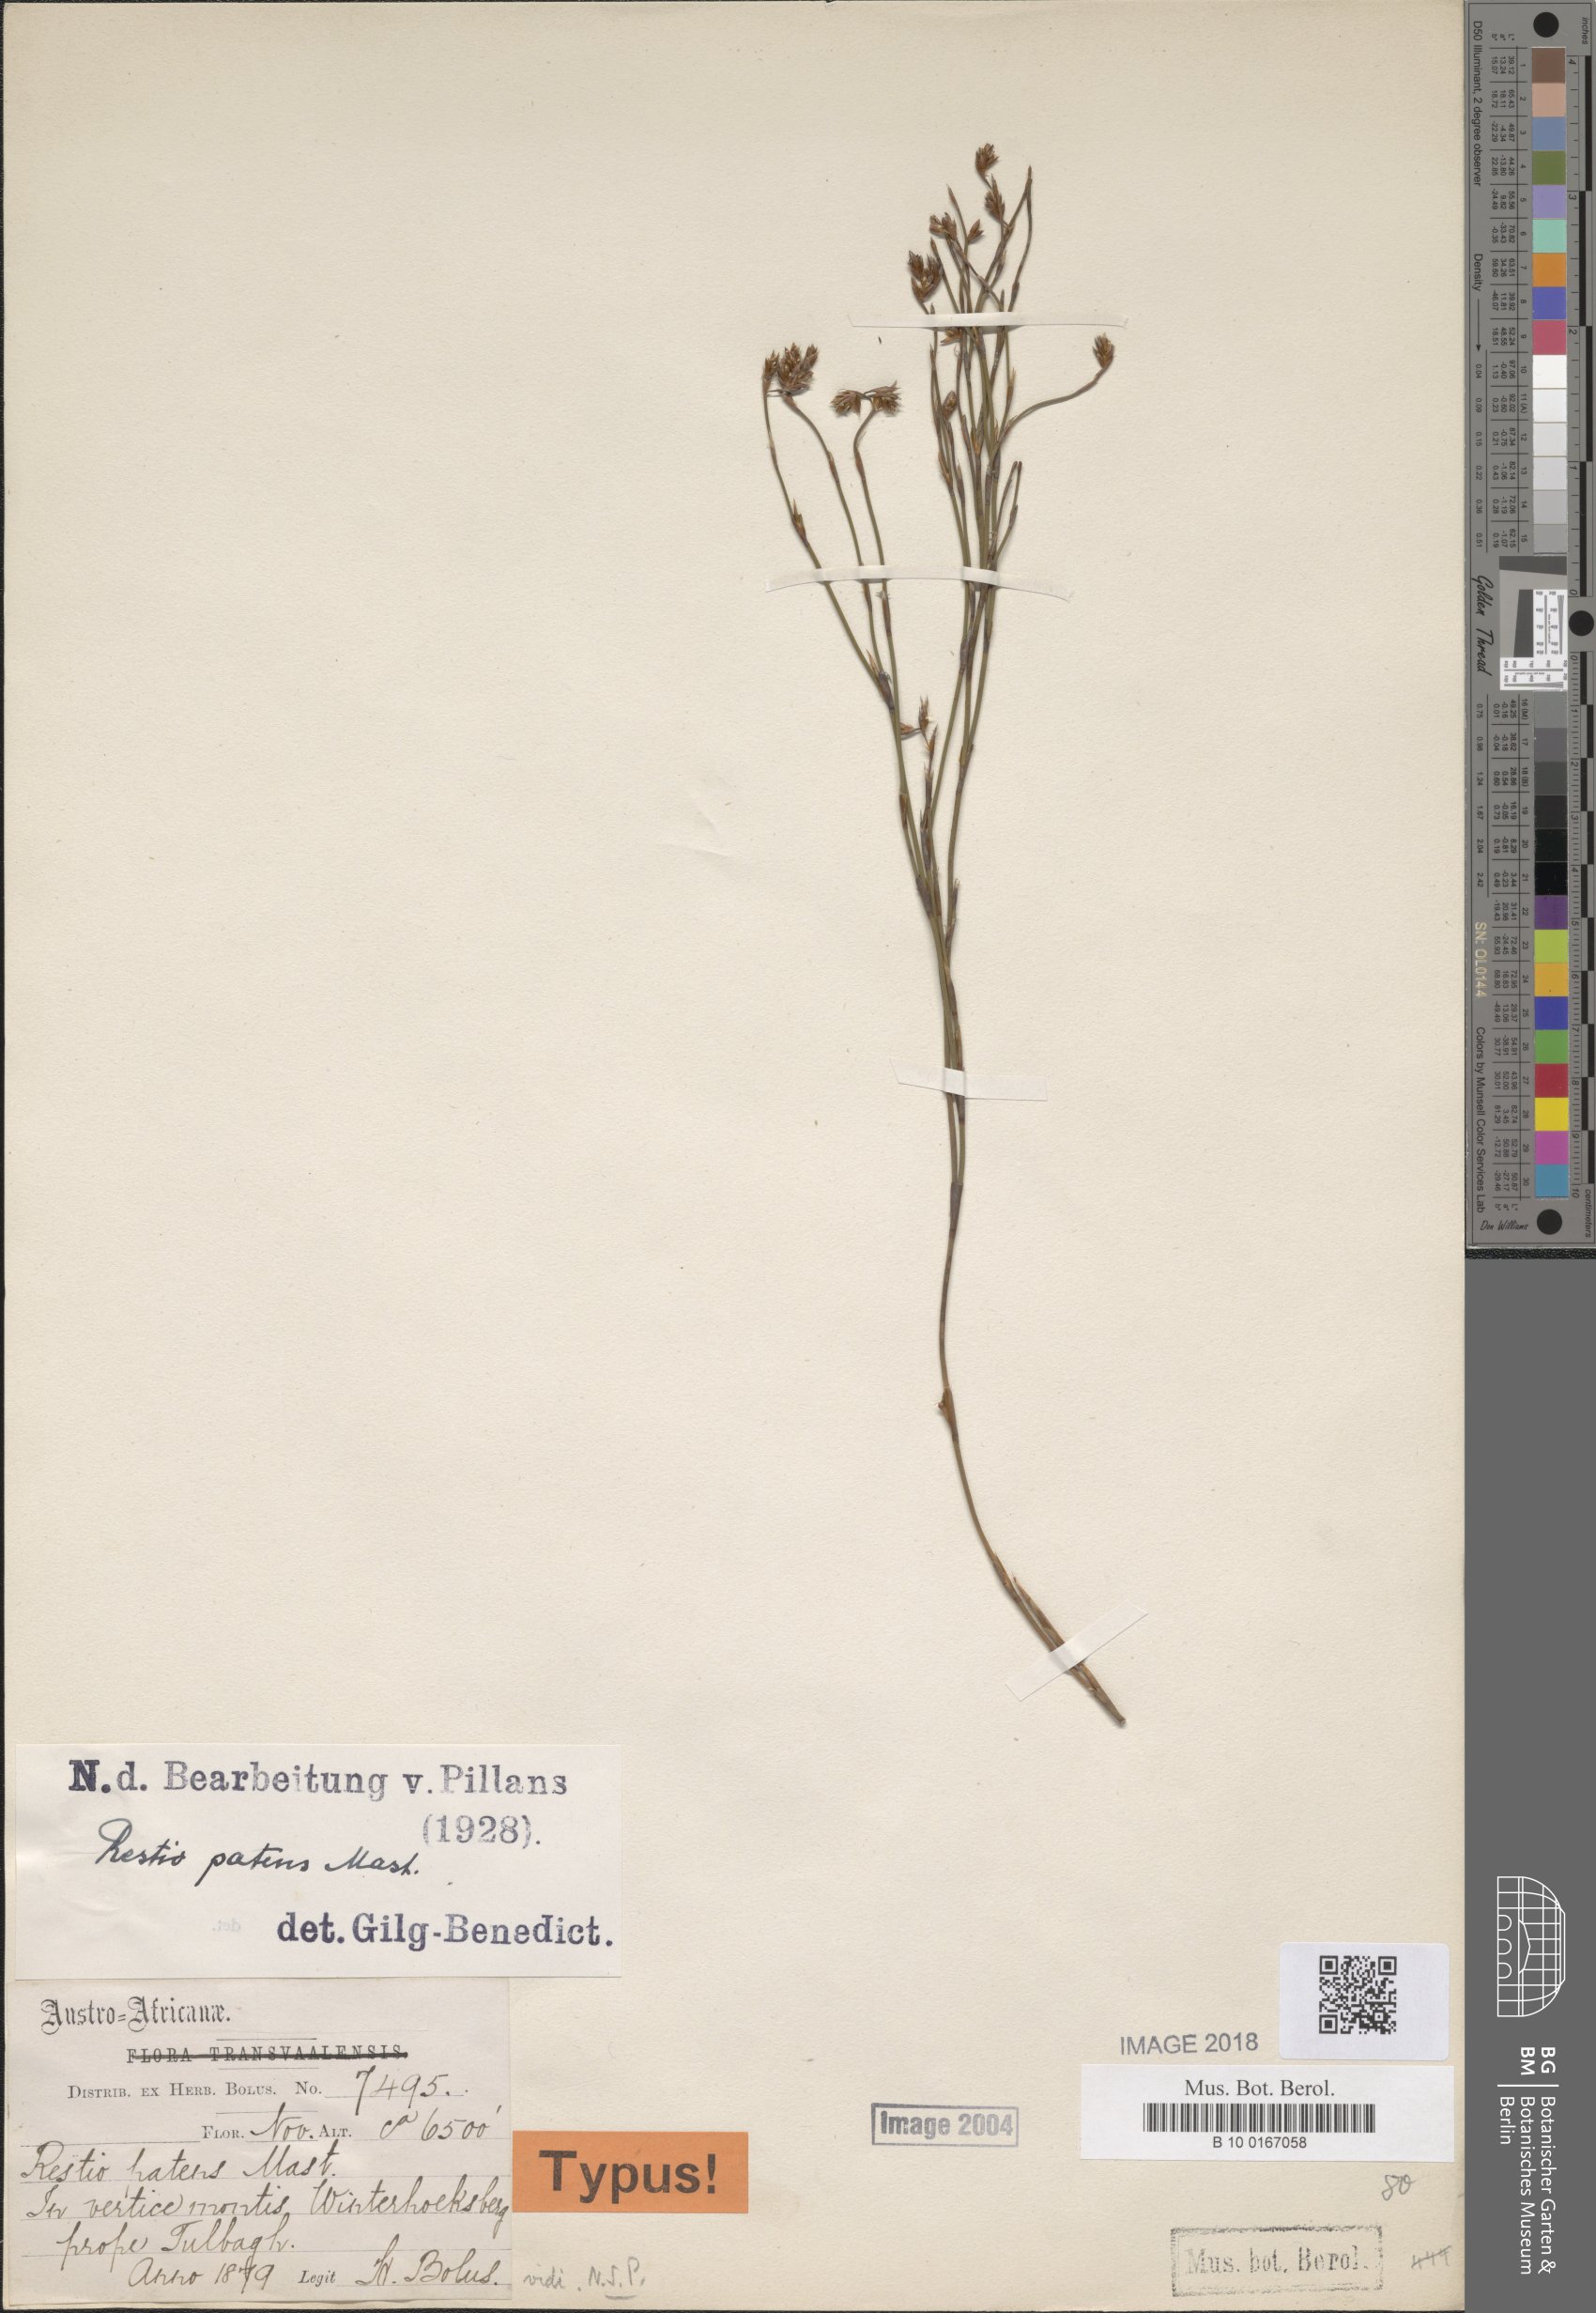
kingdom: Plantae
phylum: Tracheophyta
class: Liliopsida
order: Poales
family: Restionaceae
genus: Restio
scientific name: Restio patens
